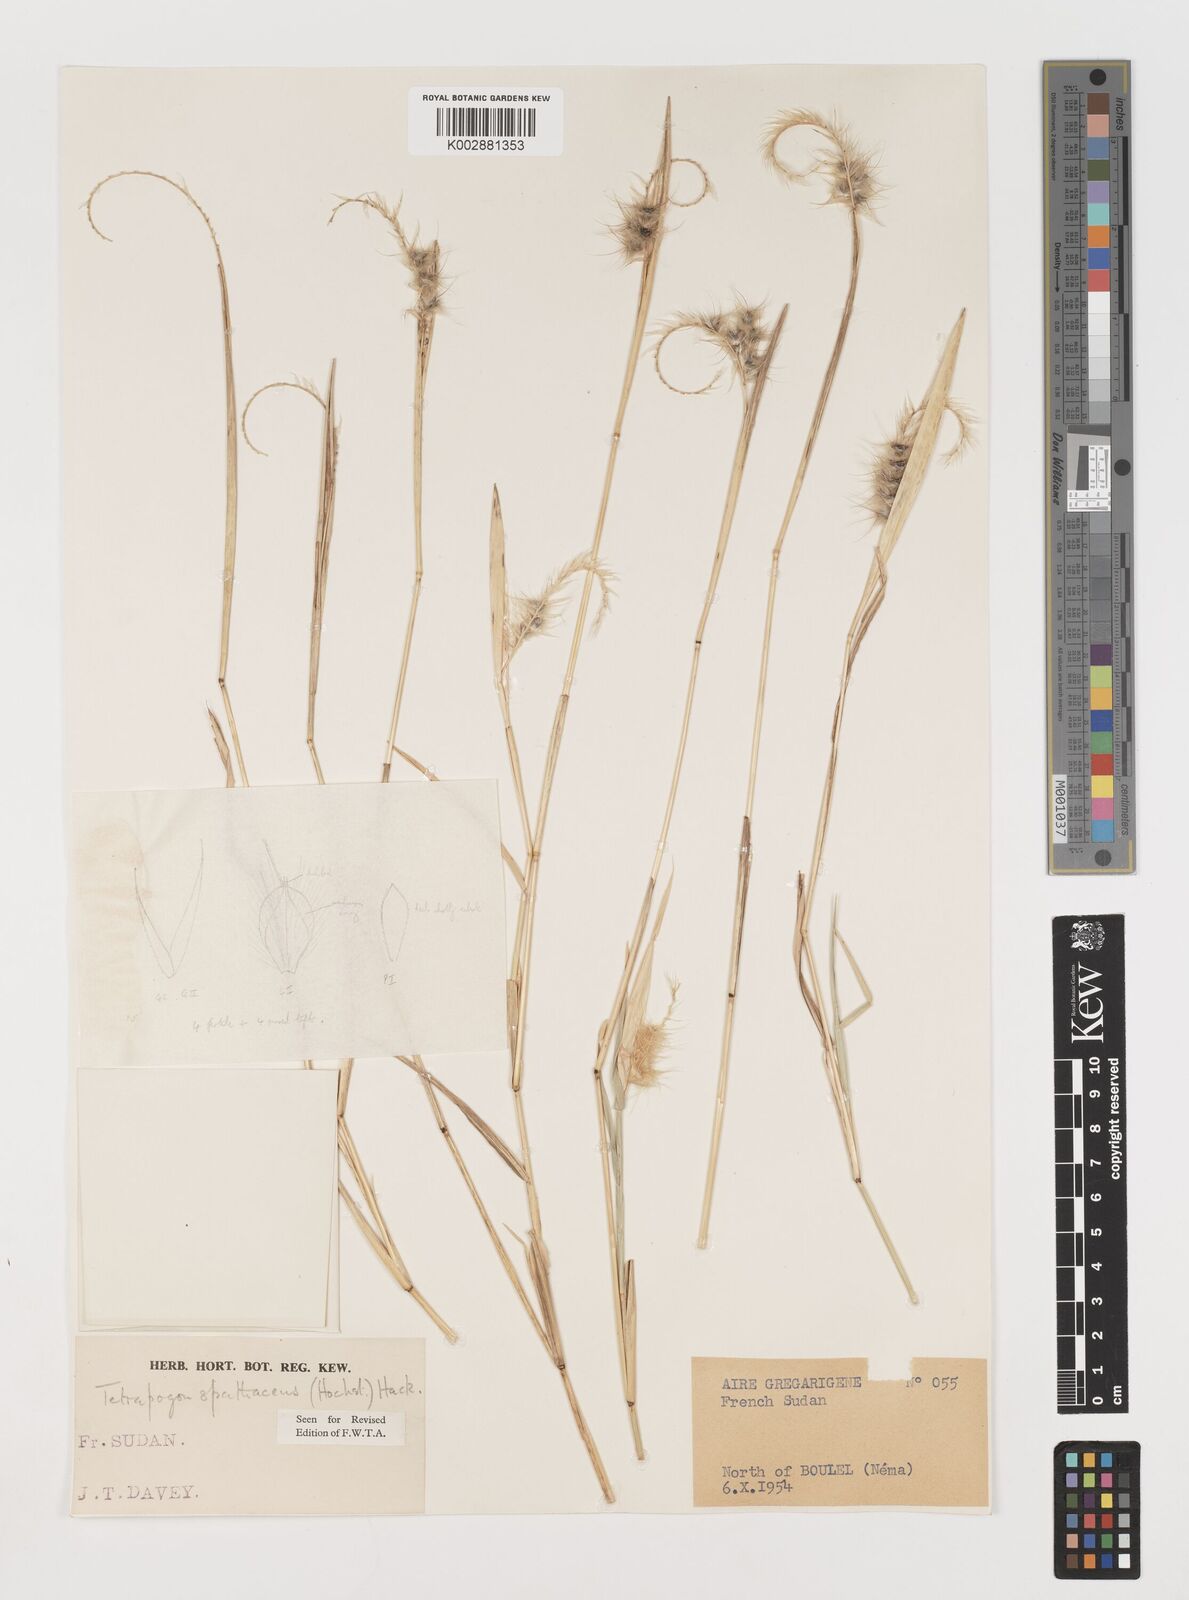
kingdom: Plantae
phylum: Tracheophyta
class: Liliopsida
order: Poales
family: Poaceae
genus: Tetrapogon
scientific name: Tetrapogon cenchriformis
